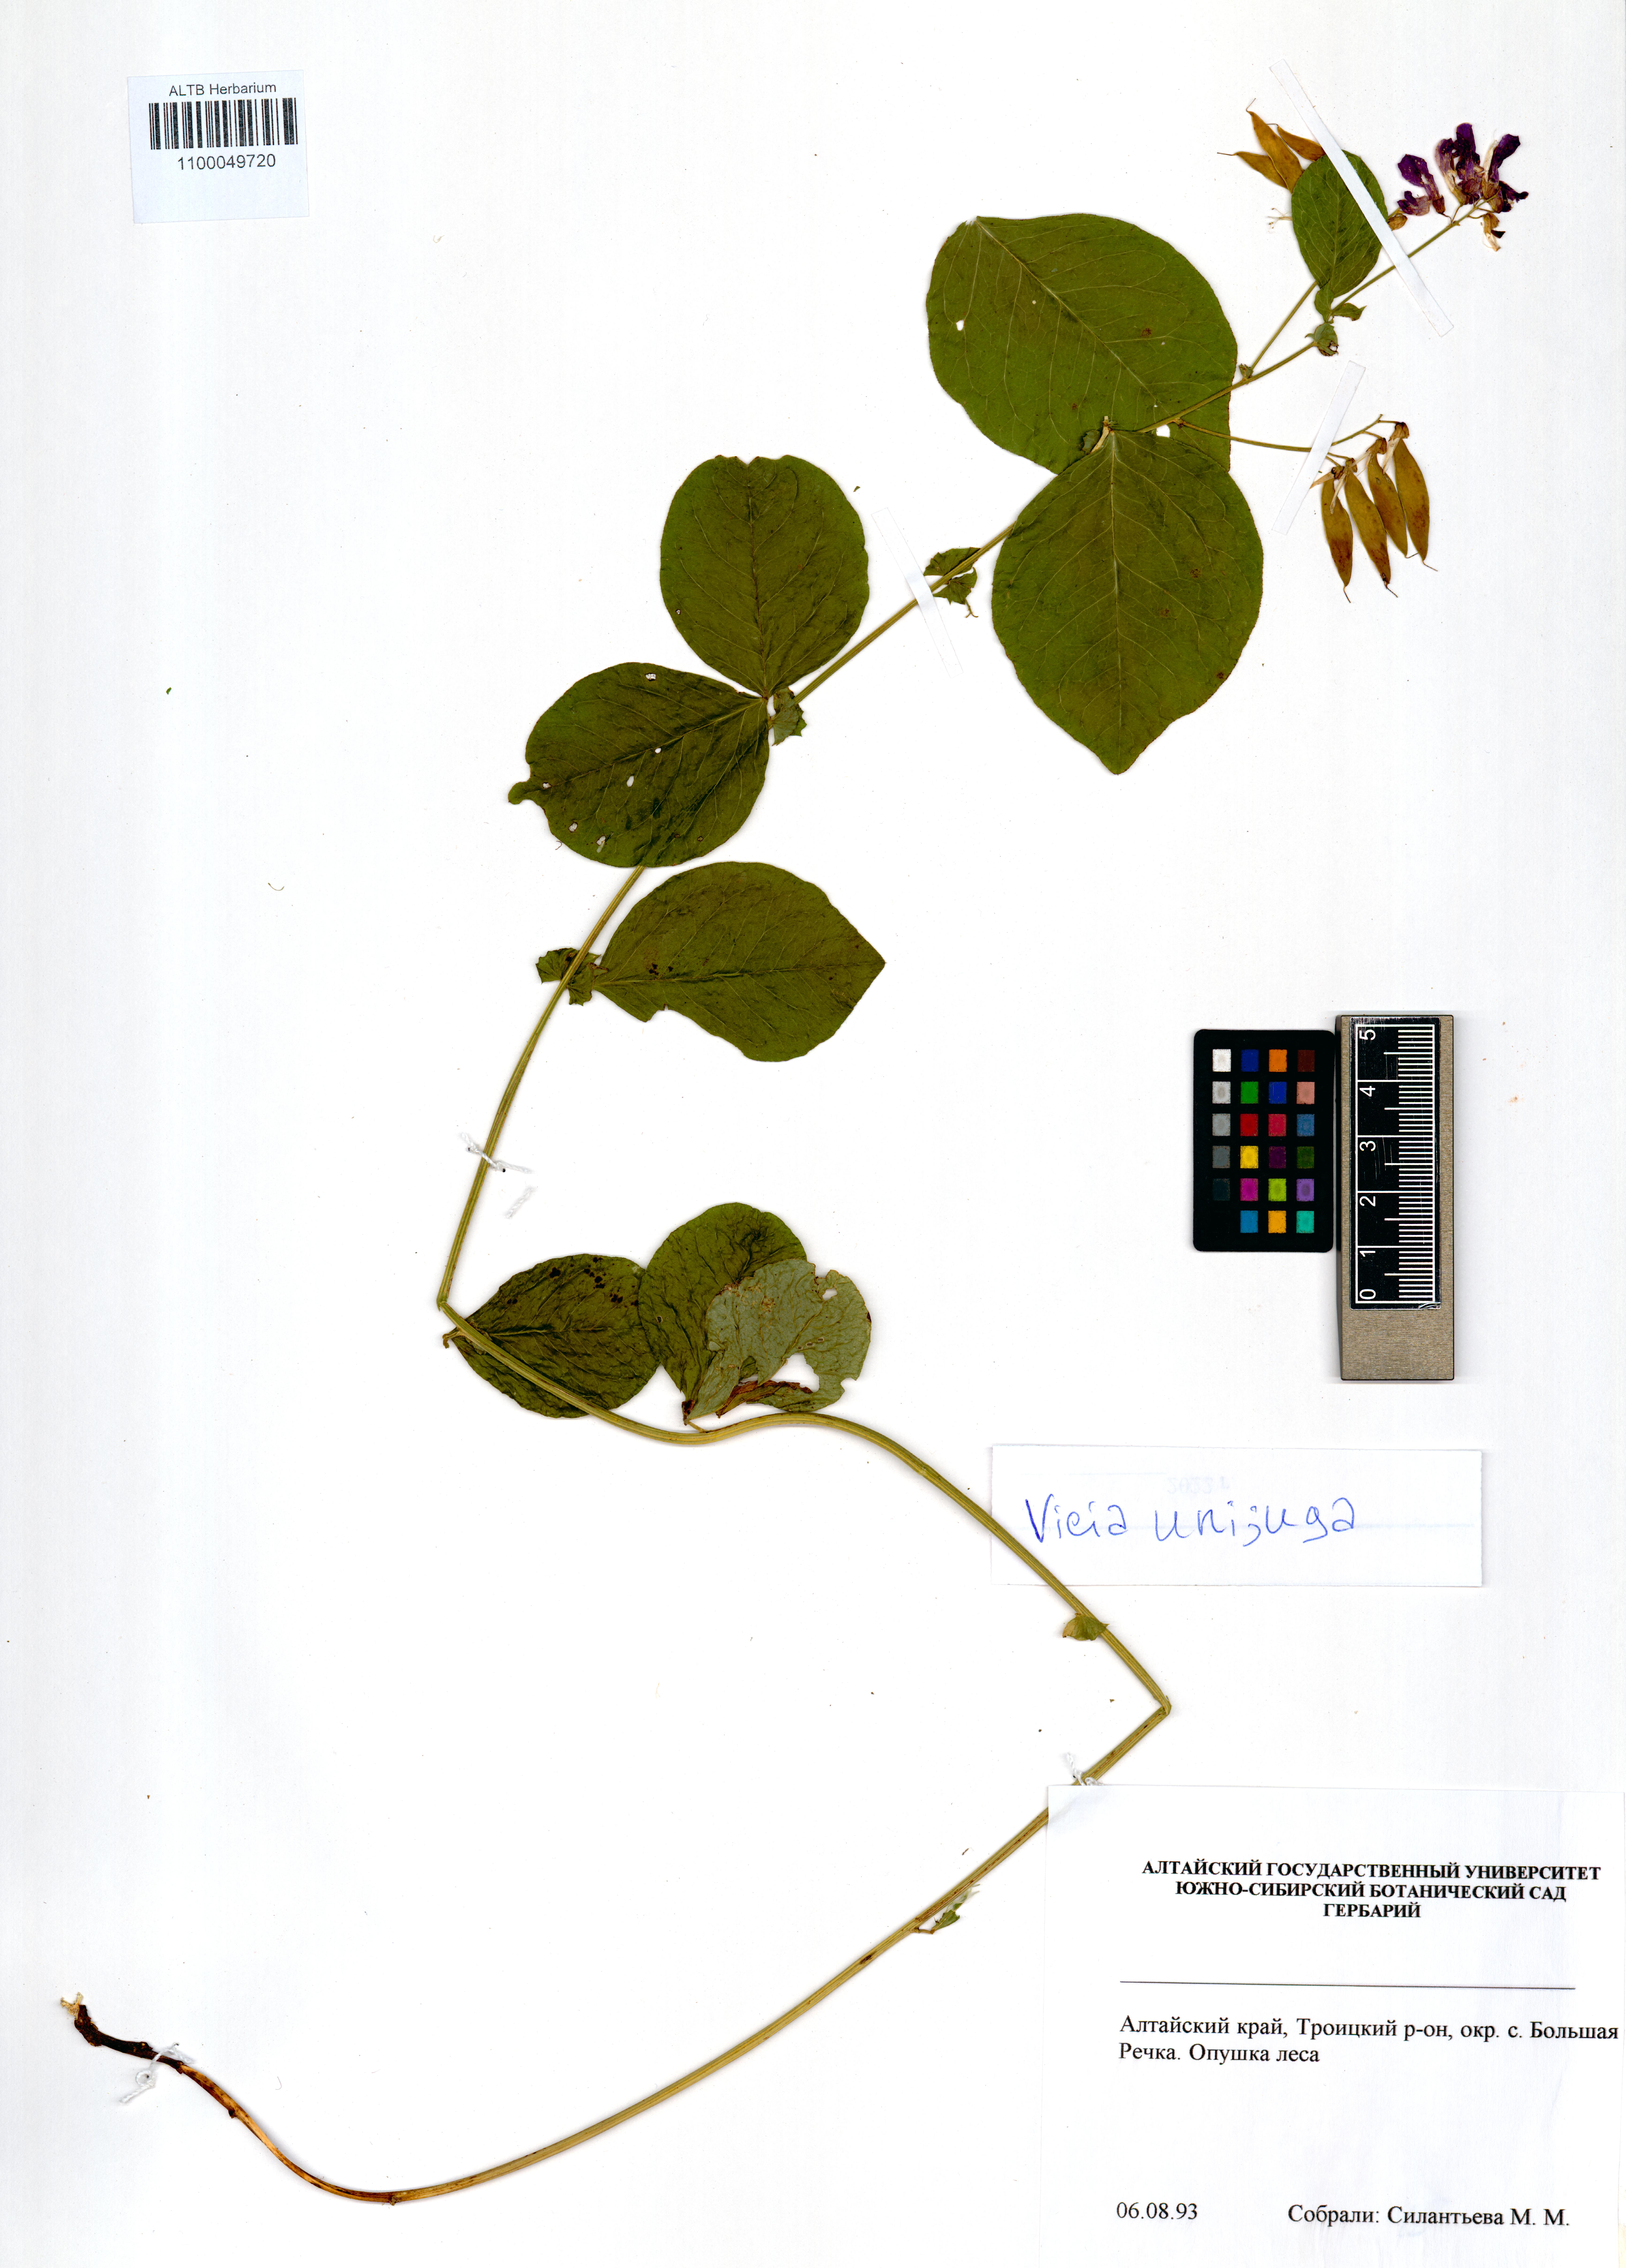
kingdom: Plantae
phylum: Tracheophyta
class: Magnoliopsida
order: Fabales
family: Fabaceae
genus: Vicia
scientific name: Vicia unijuga
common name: Two-leaf vetch
